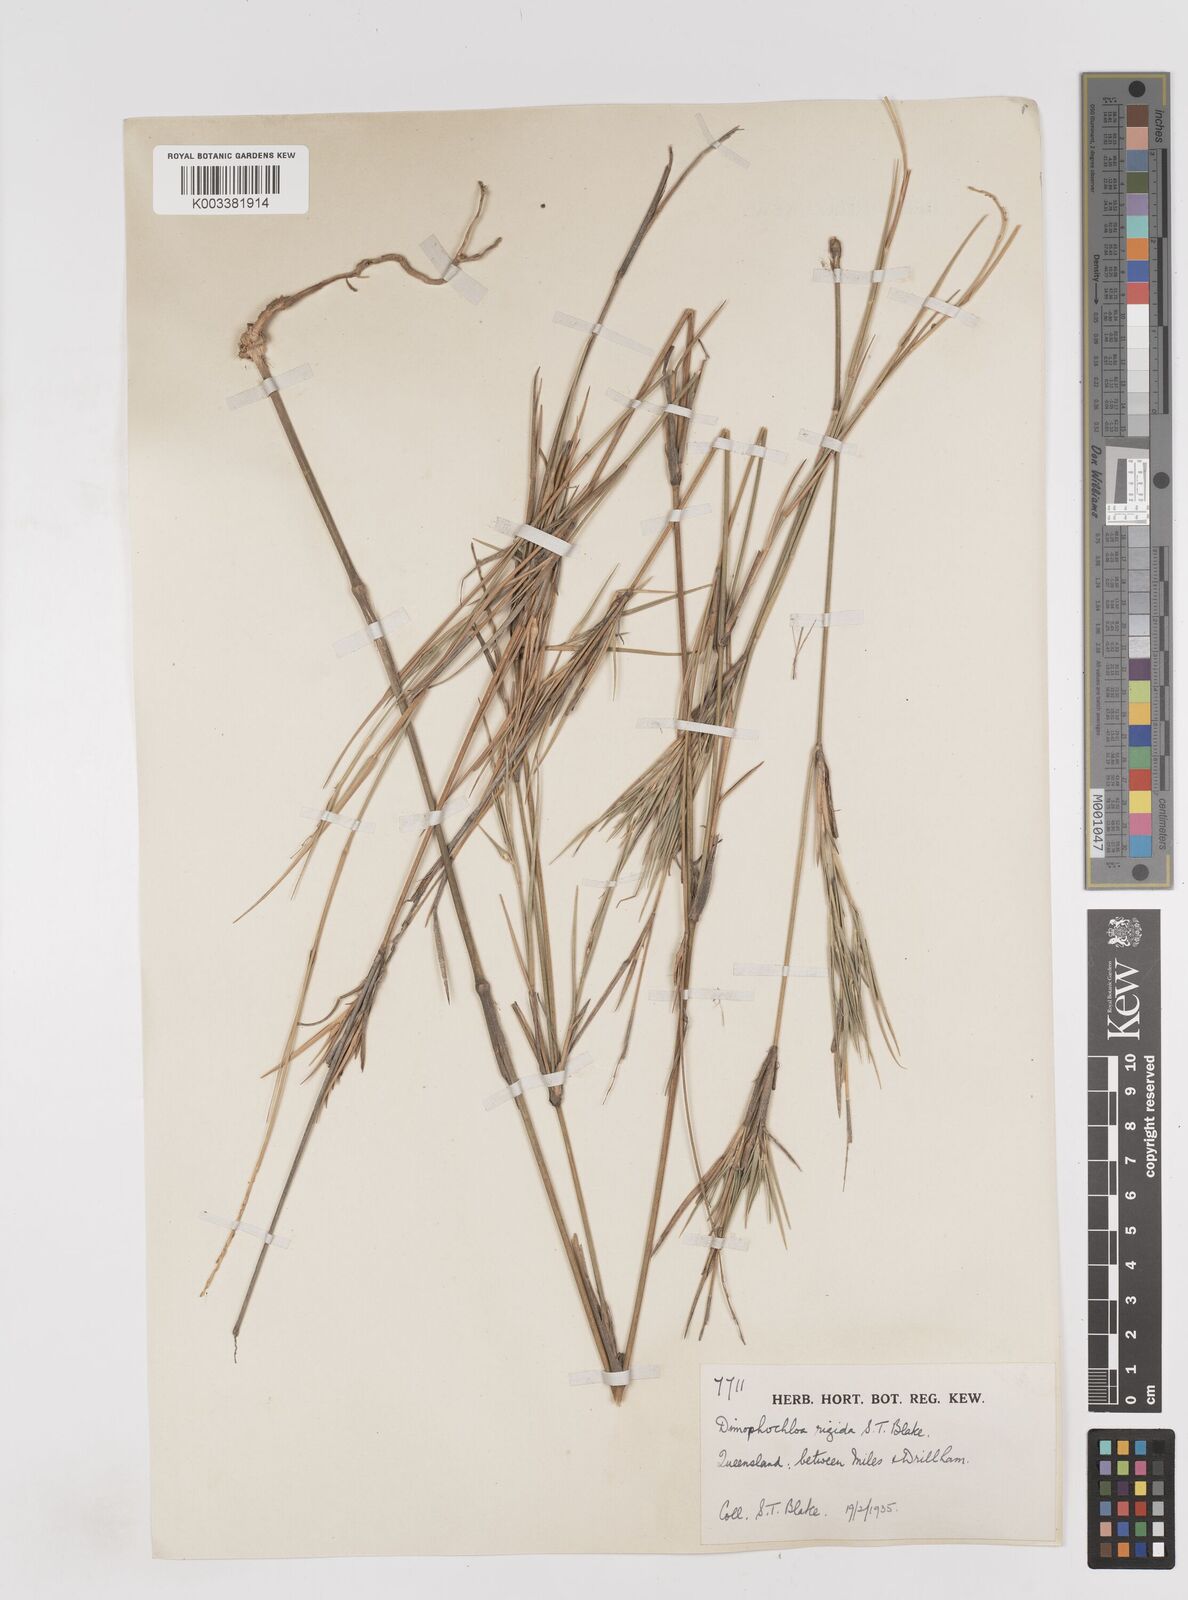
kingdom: Plantae
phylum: Tracheophyta
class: Liliopsida
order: Poales
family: Poaceae
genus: Dimorphochloa
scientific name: Dimorphochloa rigida
